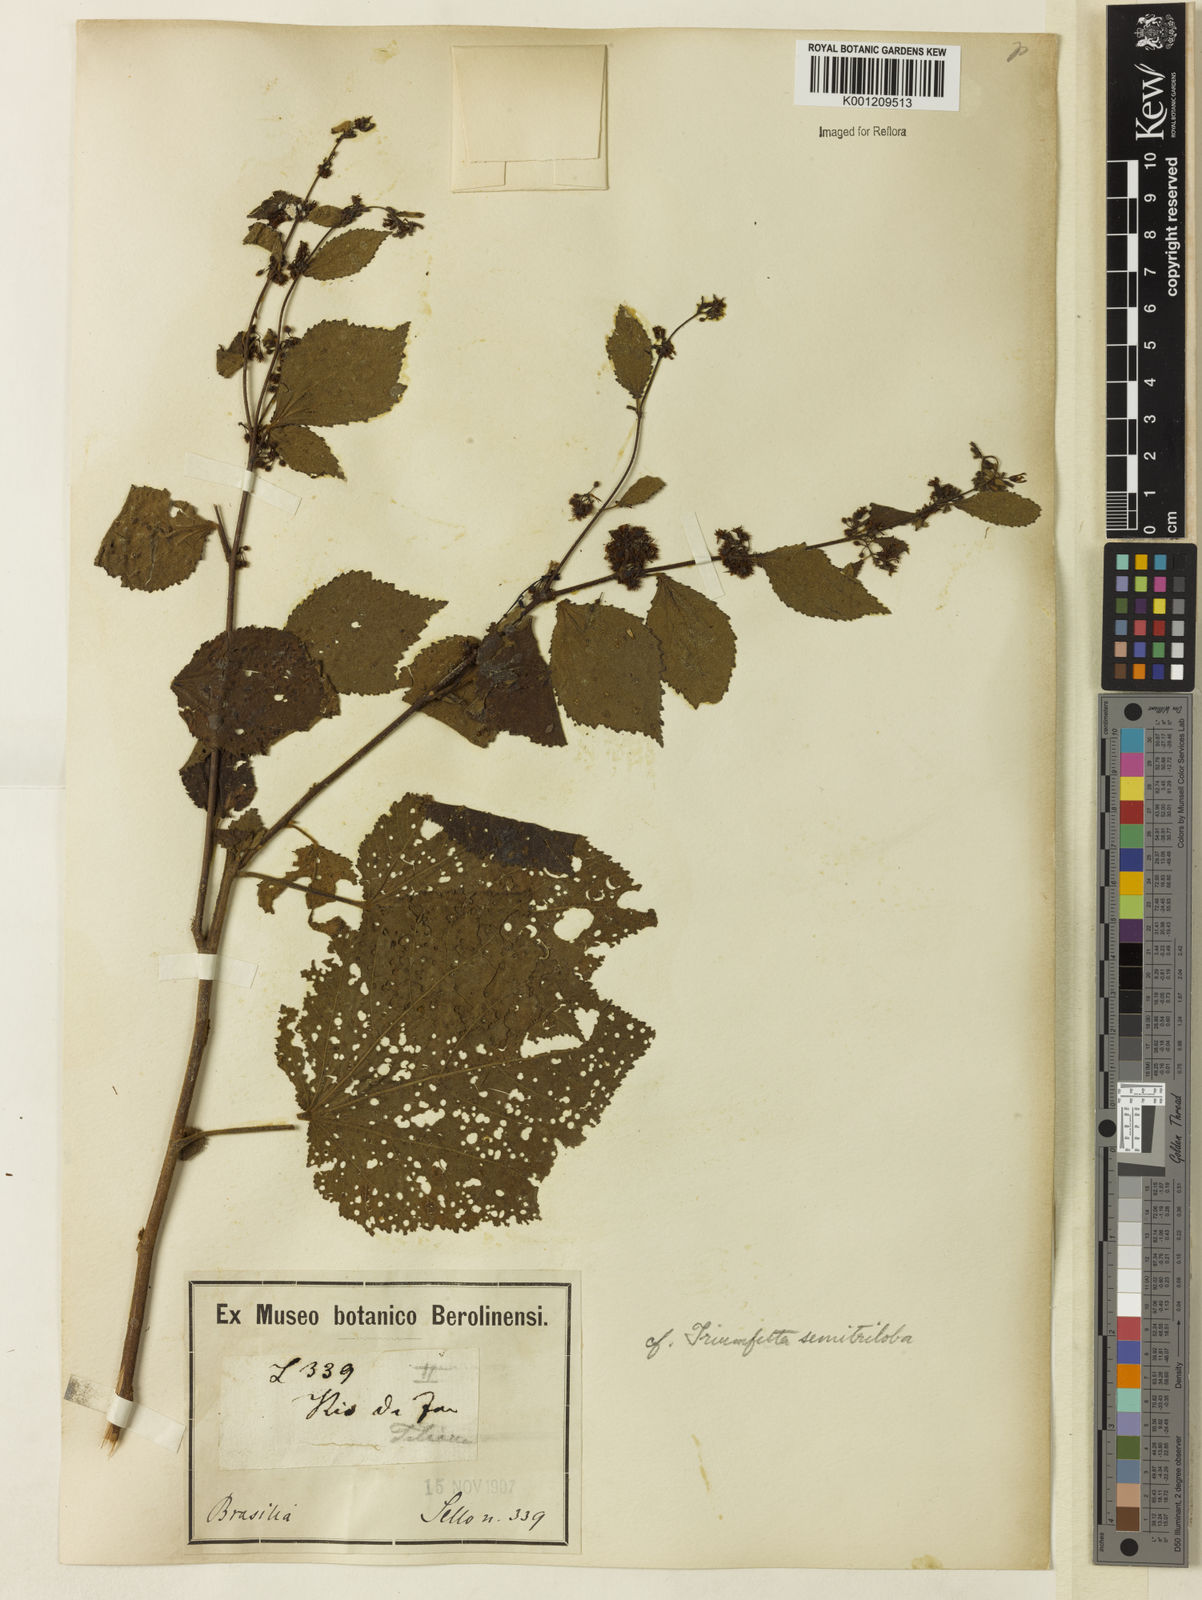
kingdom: Plantae
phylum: Tracheophyta
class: Magnoliopsida
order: Malvales
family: Malvaceae
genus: Triumfetta
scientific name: Triumfetta semitriloba
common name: Sacramento burbark
